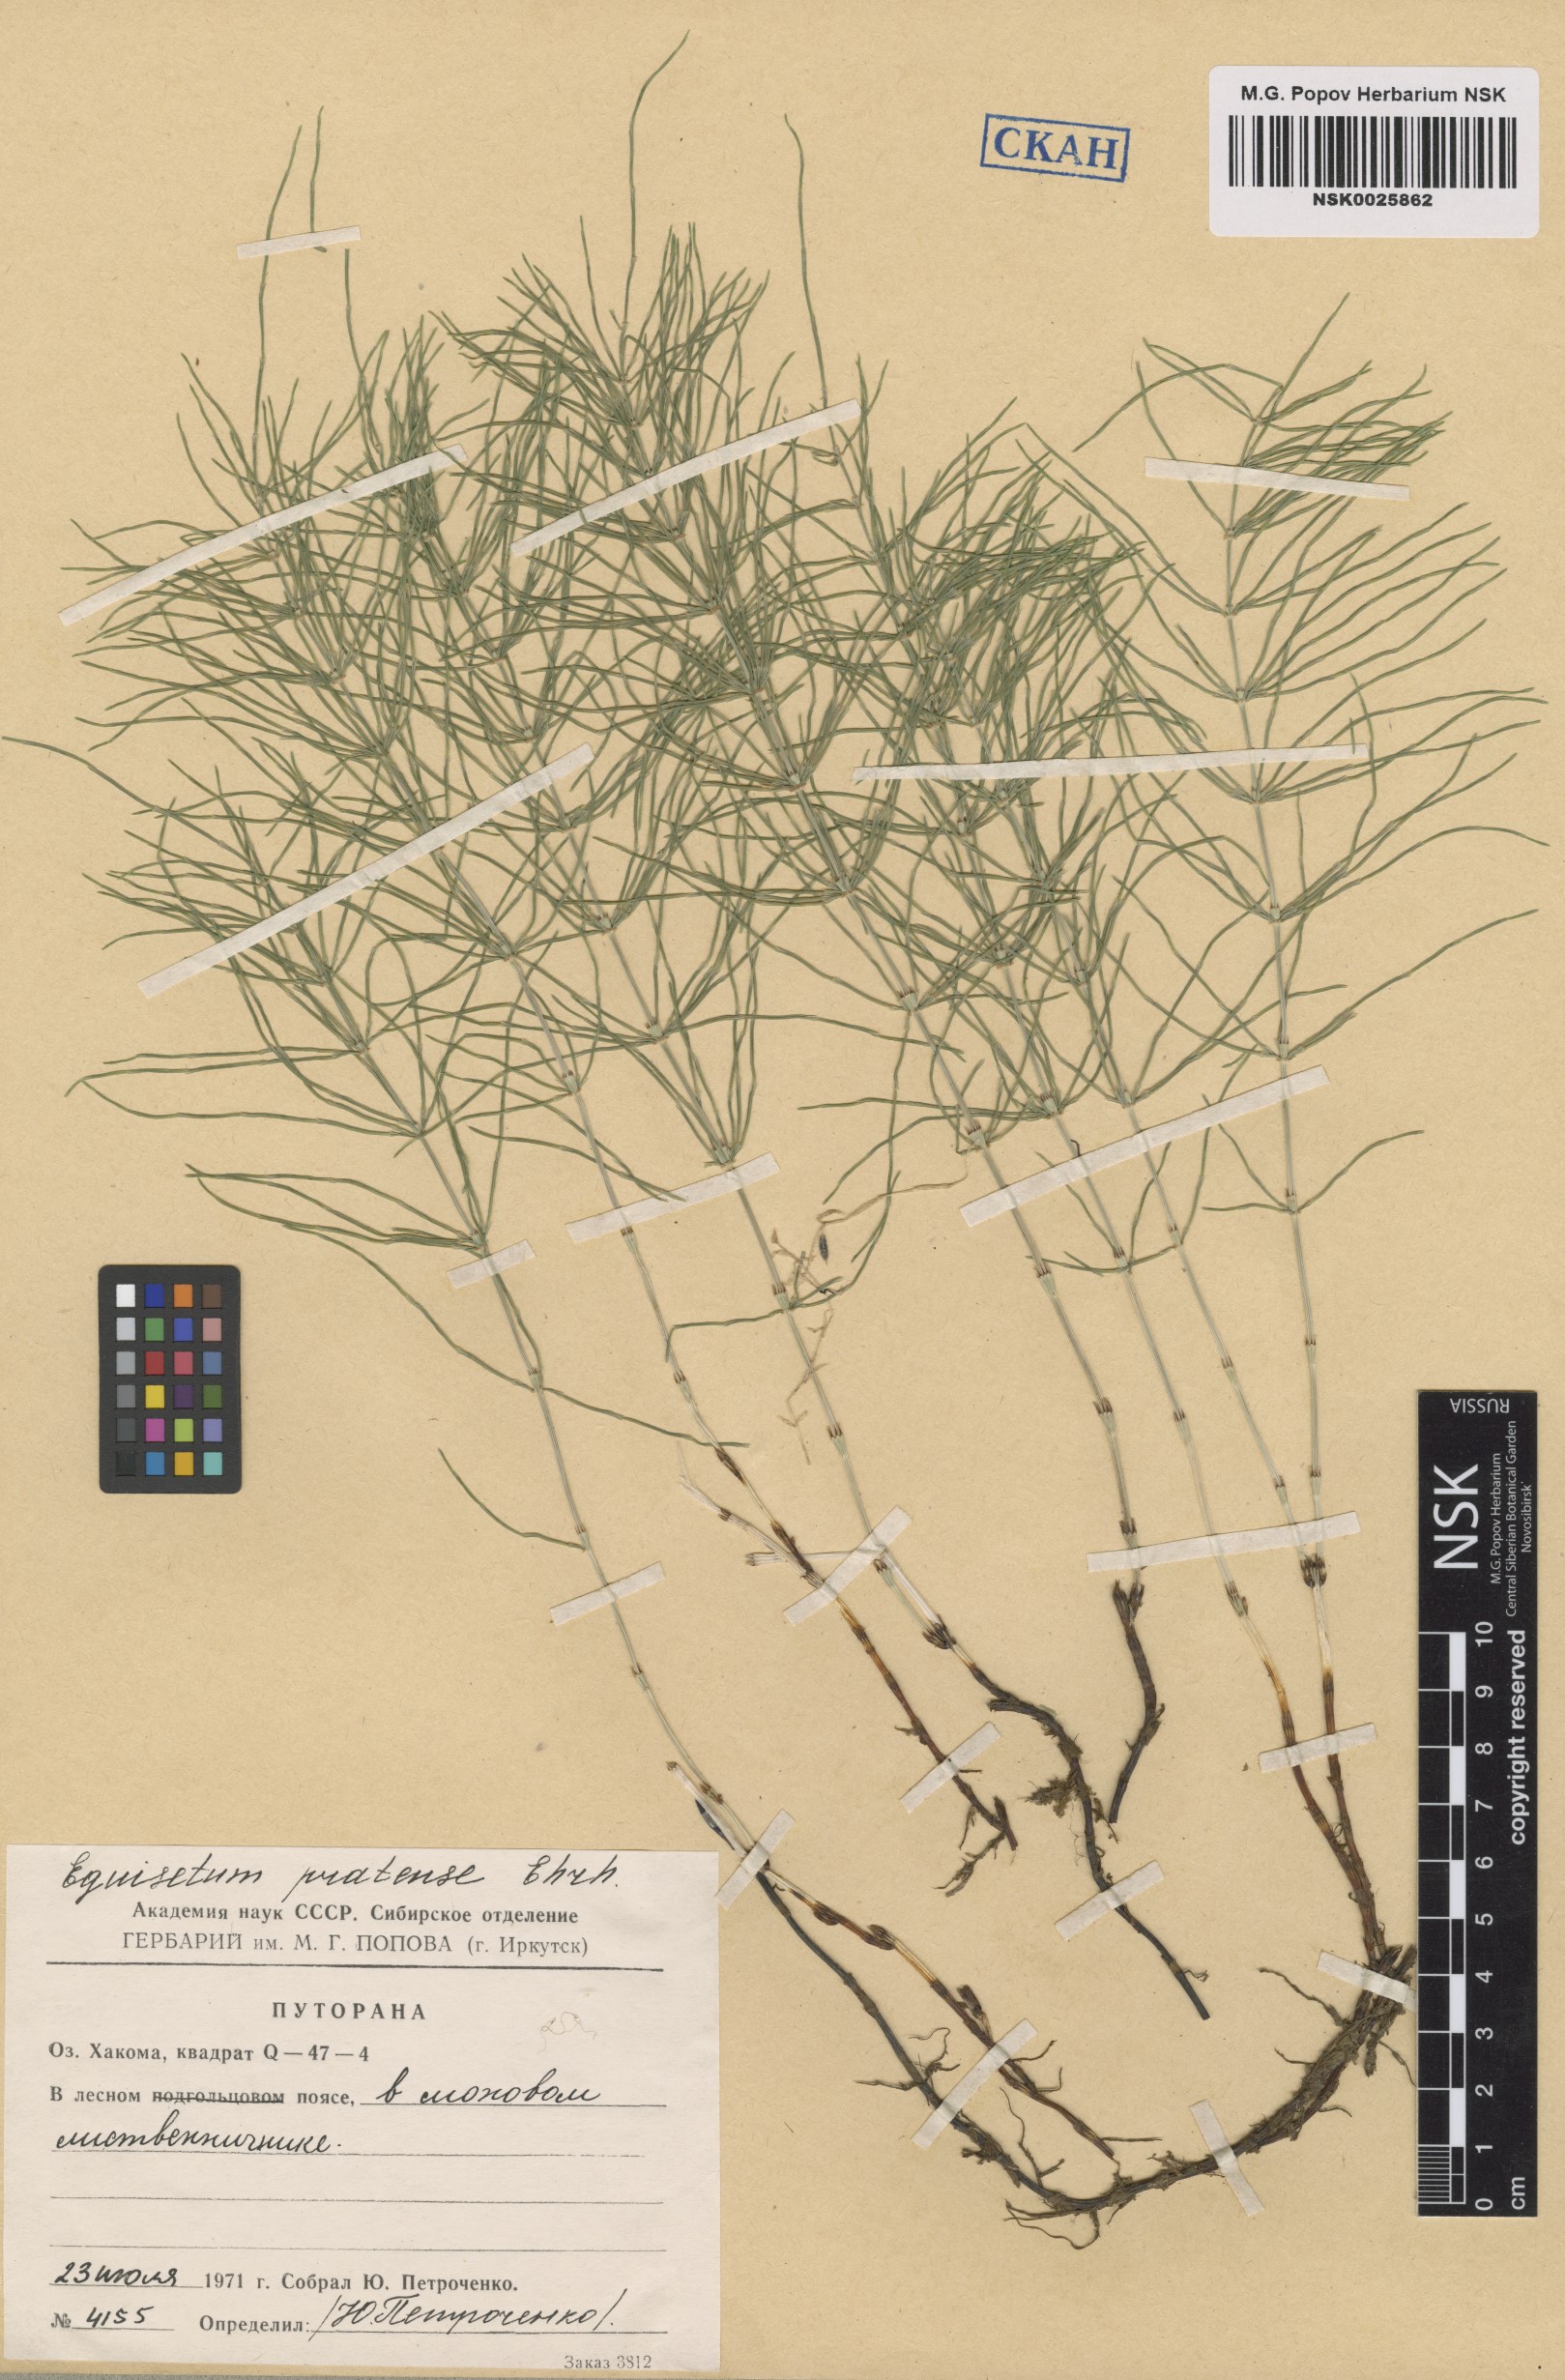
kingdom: Plantae
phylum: Tracheophyta
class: Polypodiopsida
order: Equisetales
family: Equisetaceae
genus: Equisetum
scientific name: Equisetum pratense
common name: Meadow horsetail
